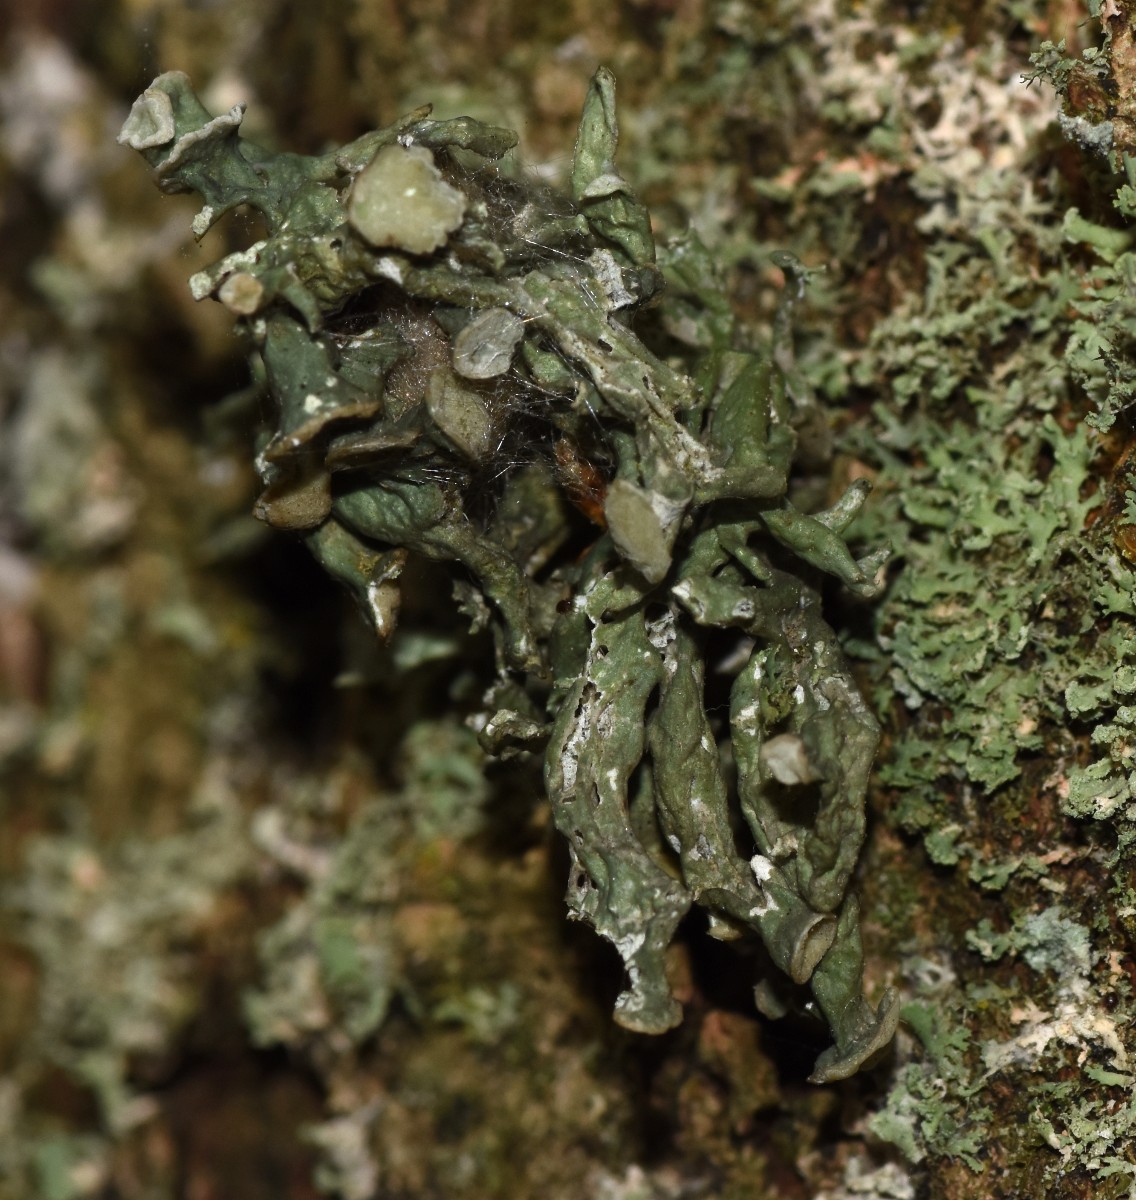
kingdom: Fungi
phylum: Ascomycota
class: Lecanoromycetes
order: Lecanorales
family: Ramalinaceae
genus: Ramalina
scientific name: Ramalina fastigiata
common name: tue-grenlav
